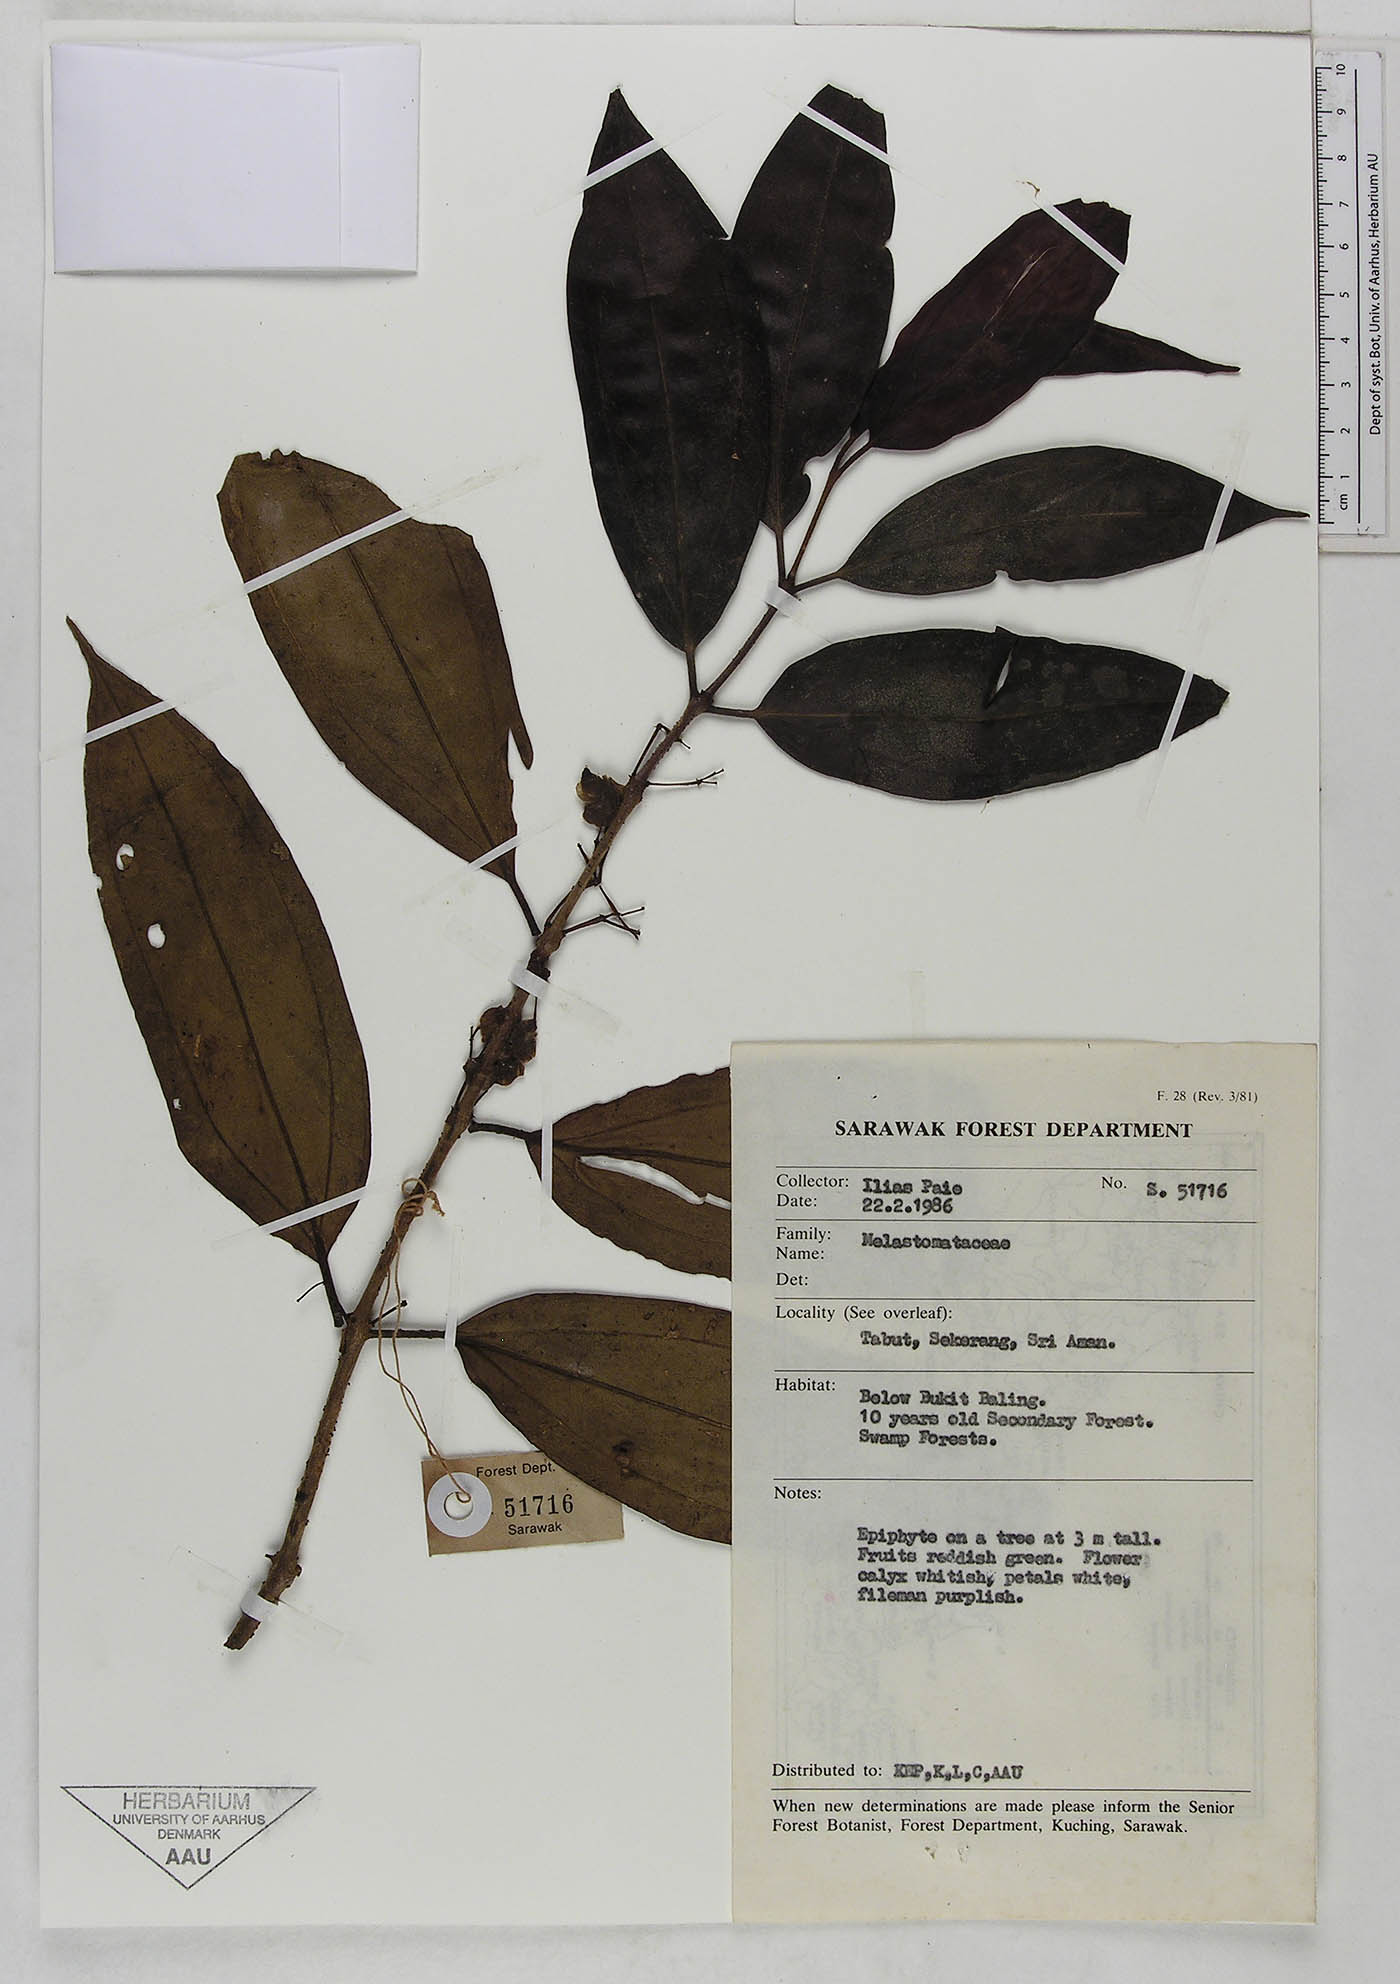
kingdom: Plantae
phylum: Tracheophyta
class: Magnoliopsida
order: Myrtales
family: Melastomataceae
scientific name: Melastomataceae
